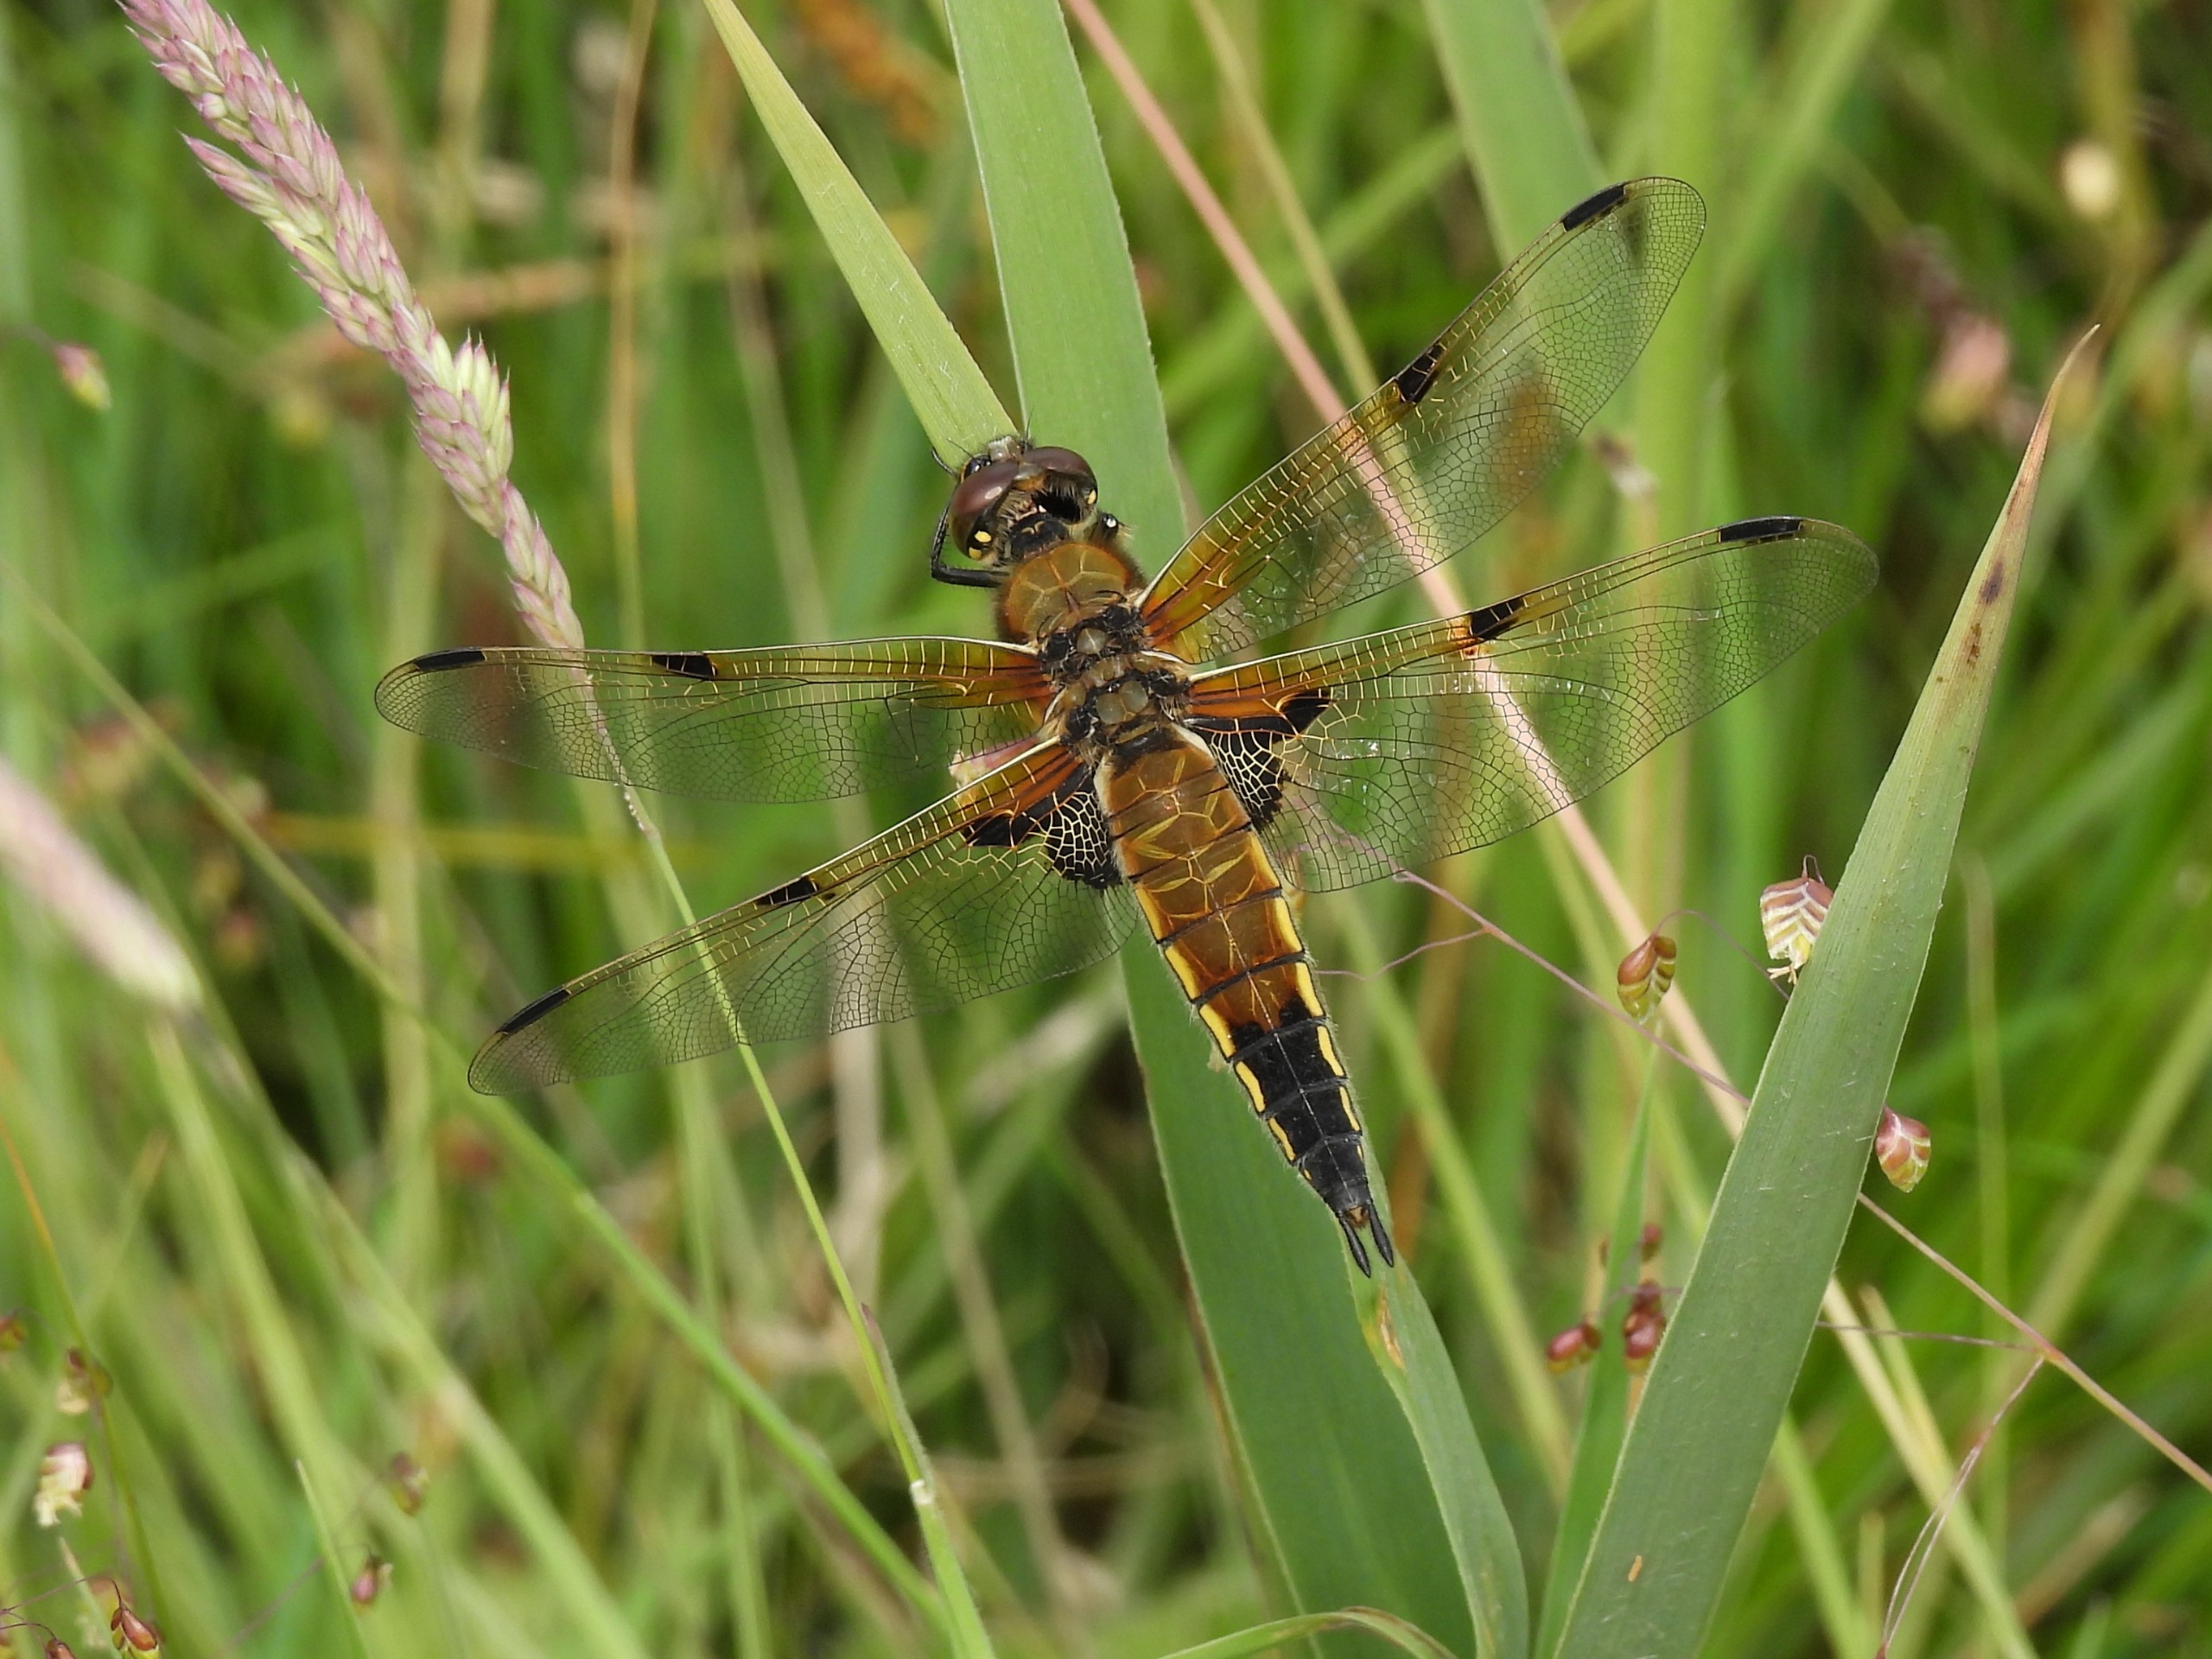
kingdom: Animalia
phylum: Arthropoda
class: Insecta
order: Odonata
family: Libellulidae
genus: Libellula
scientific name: Libellula quadrimaculata
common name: Fireplettet libel
